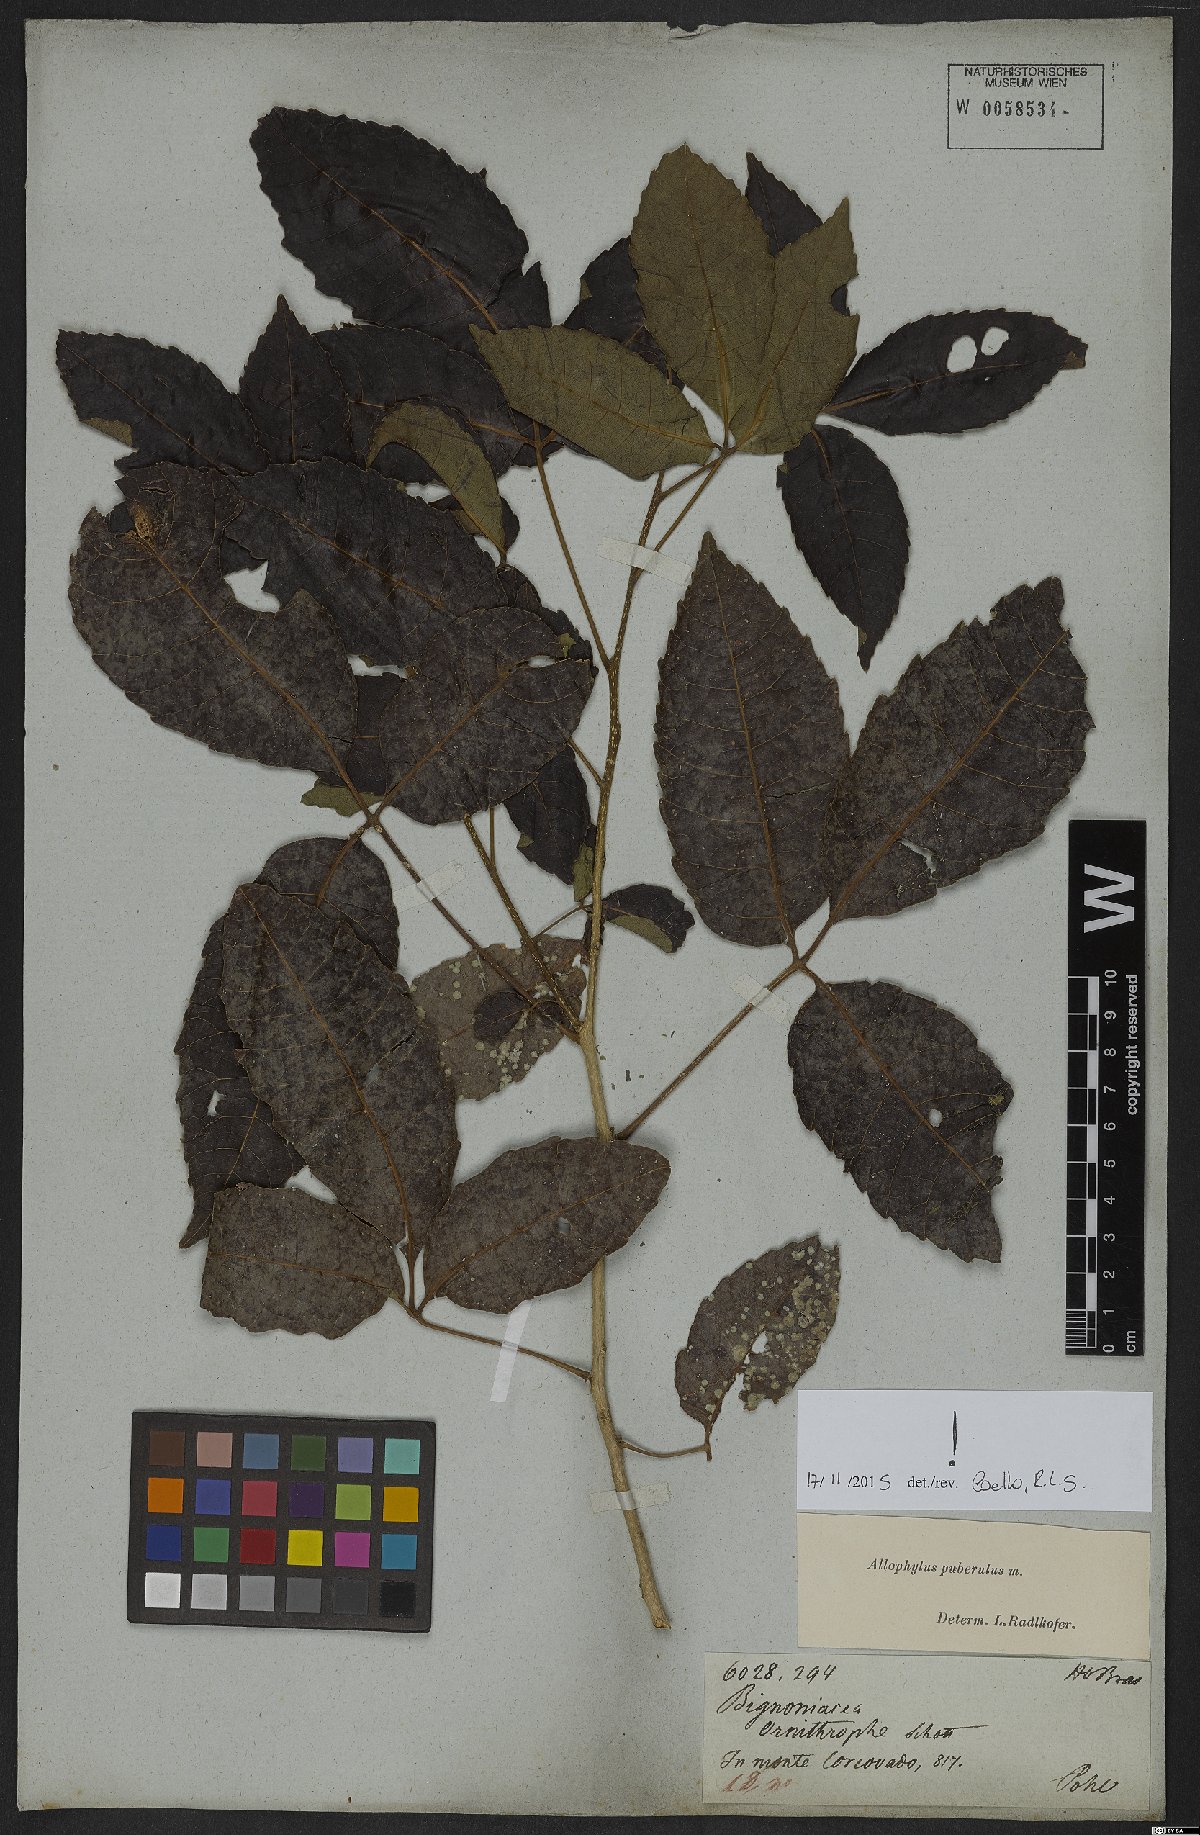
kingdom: Plantae
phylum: Tracheophyta
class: Magnoliopsida
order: Sapindales
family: Sapindaceae
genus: Allophylus
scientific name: Allophylus puberulus
